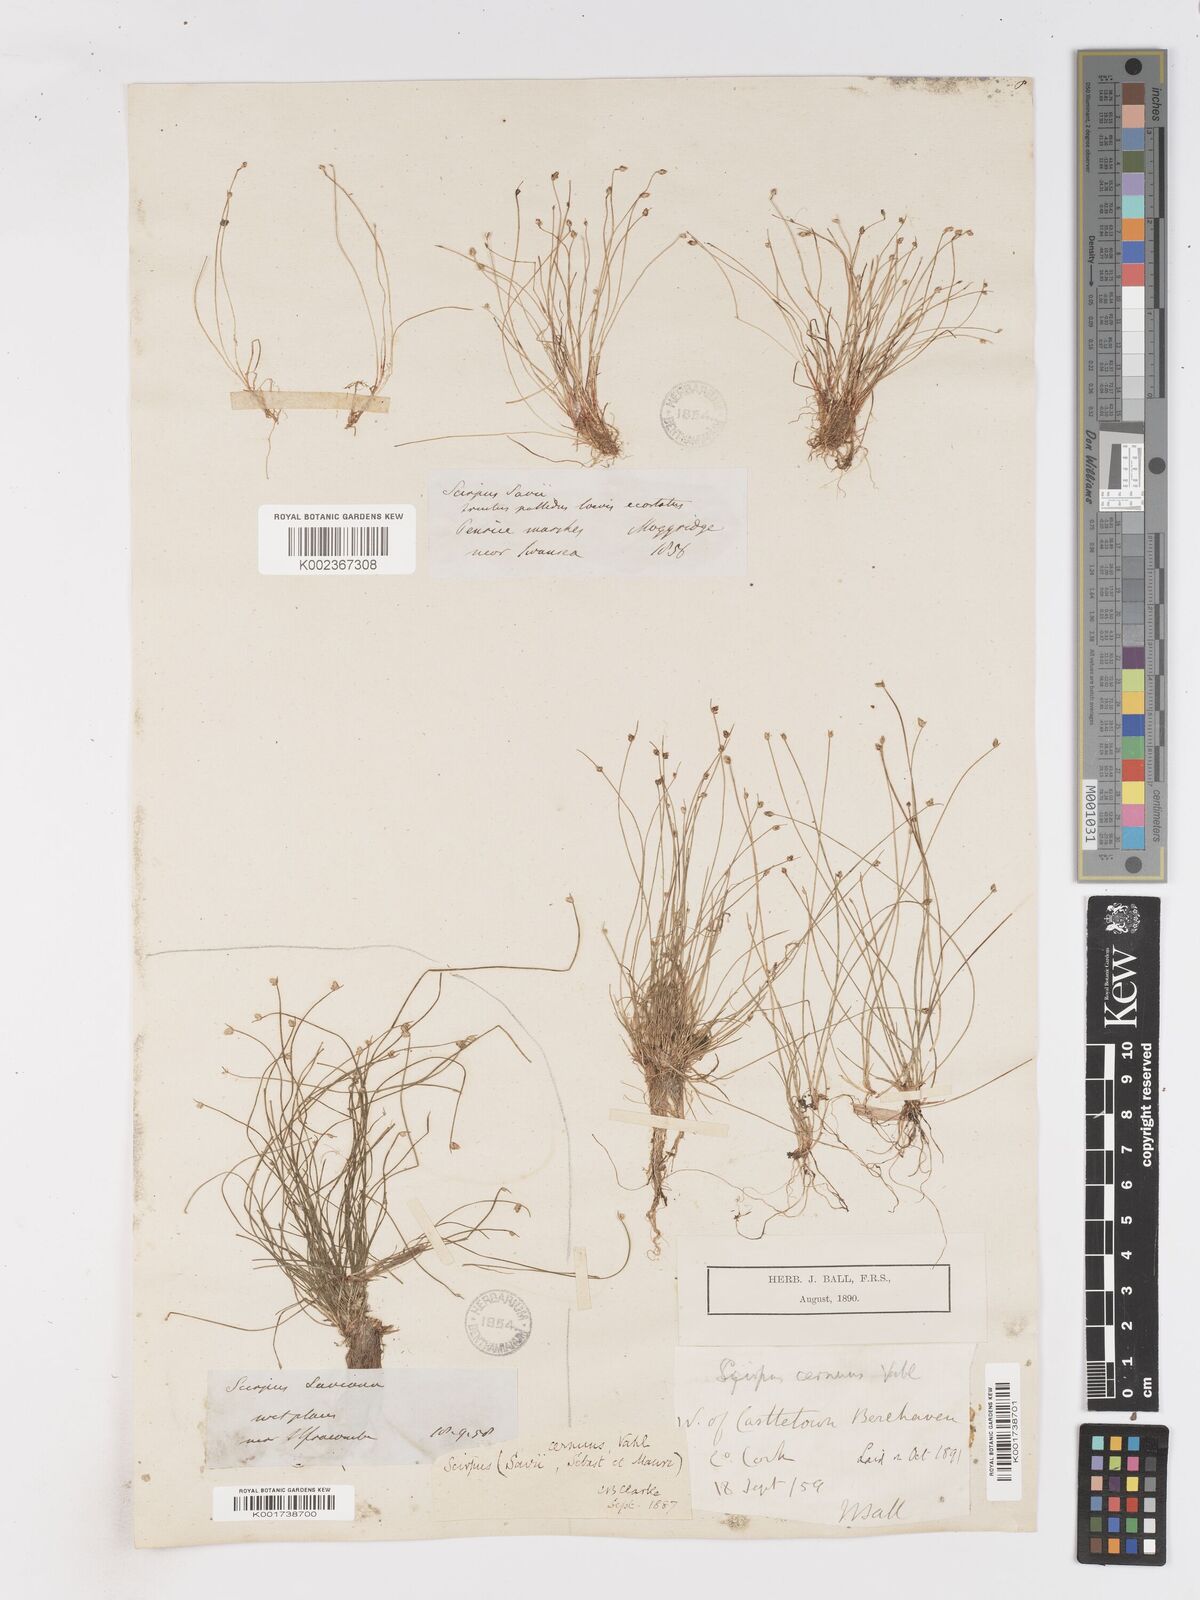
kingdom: Plantae
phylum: Tracheophyta
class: Liliopsida
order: Poales
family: Cyperaceae
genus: Isolepis
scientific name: Isolepis cernua
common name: Slender club-rush
